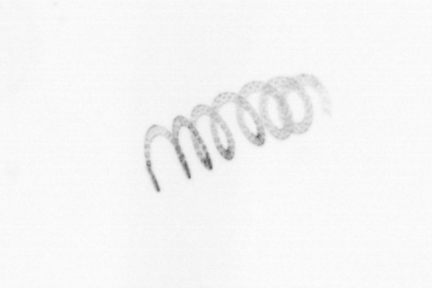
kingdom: Chromista
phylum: Ochrophyta
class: Bacillariophyceae
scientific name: Bacillariophyceae
